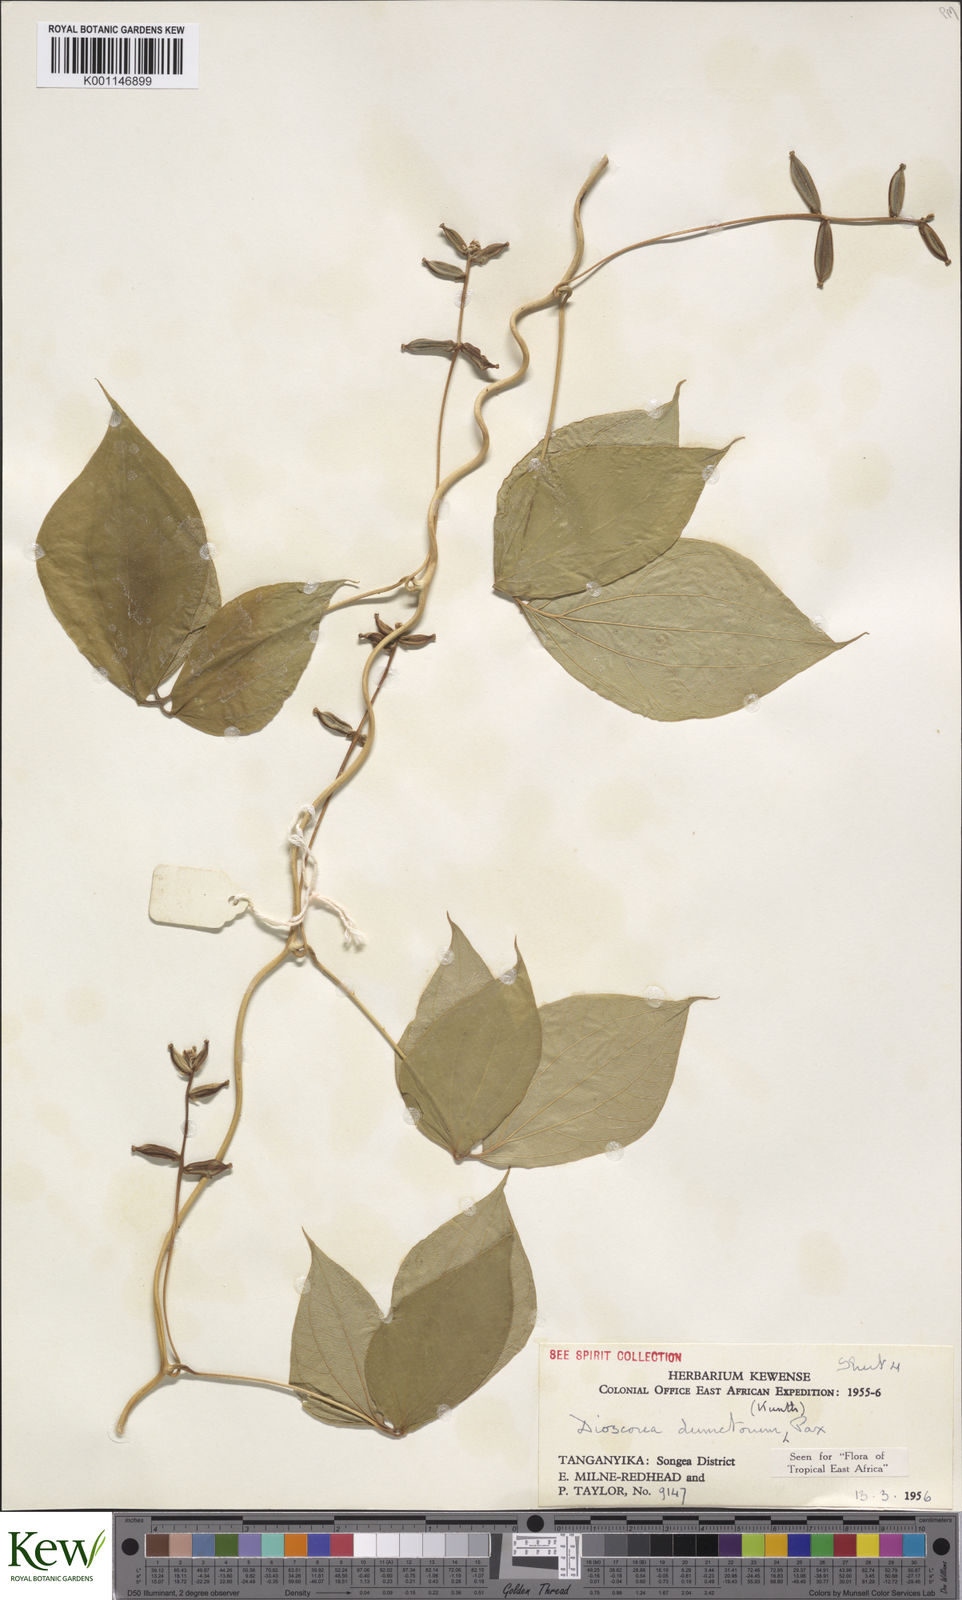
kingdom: Plantae
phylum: Tracheophyta
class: Liliopsida
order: Dioscoreales
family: Dioscoreaceae
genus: Dioscorea
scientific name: Dioscorea dumetorum
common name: African bitter yam
